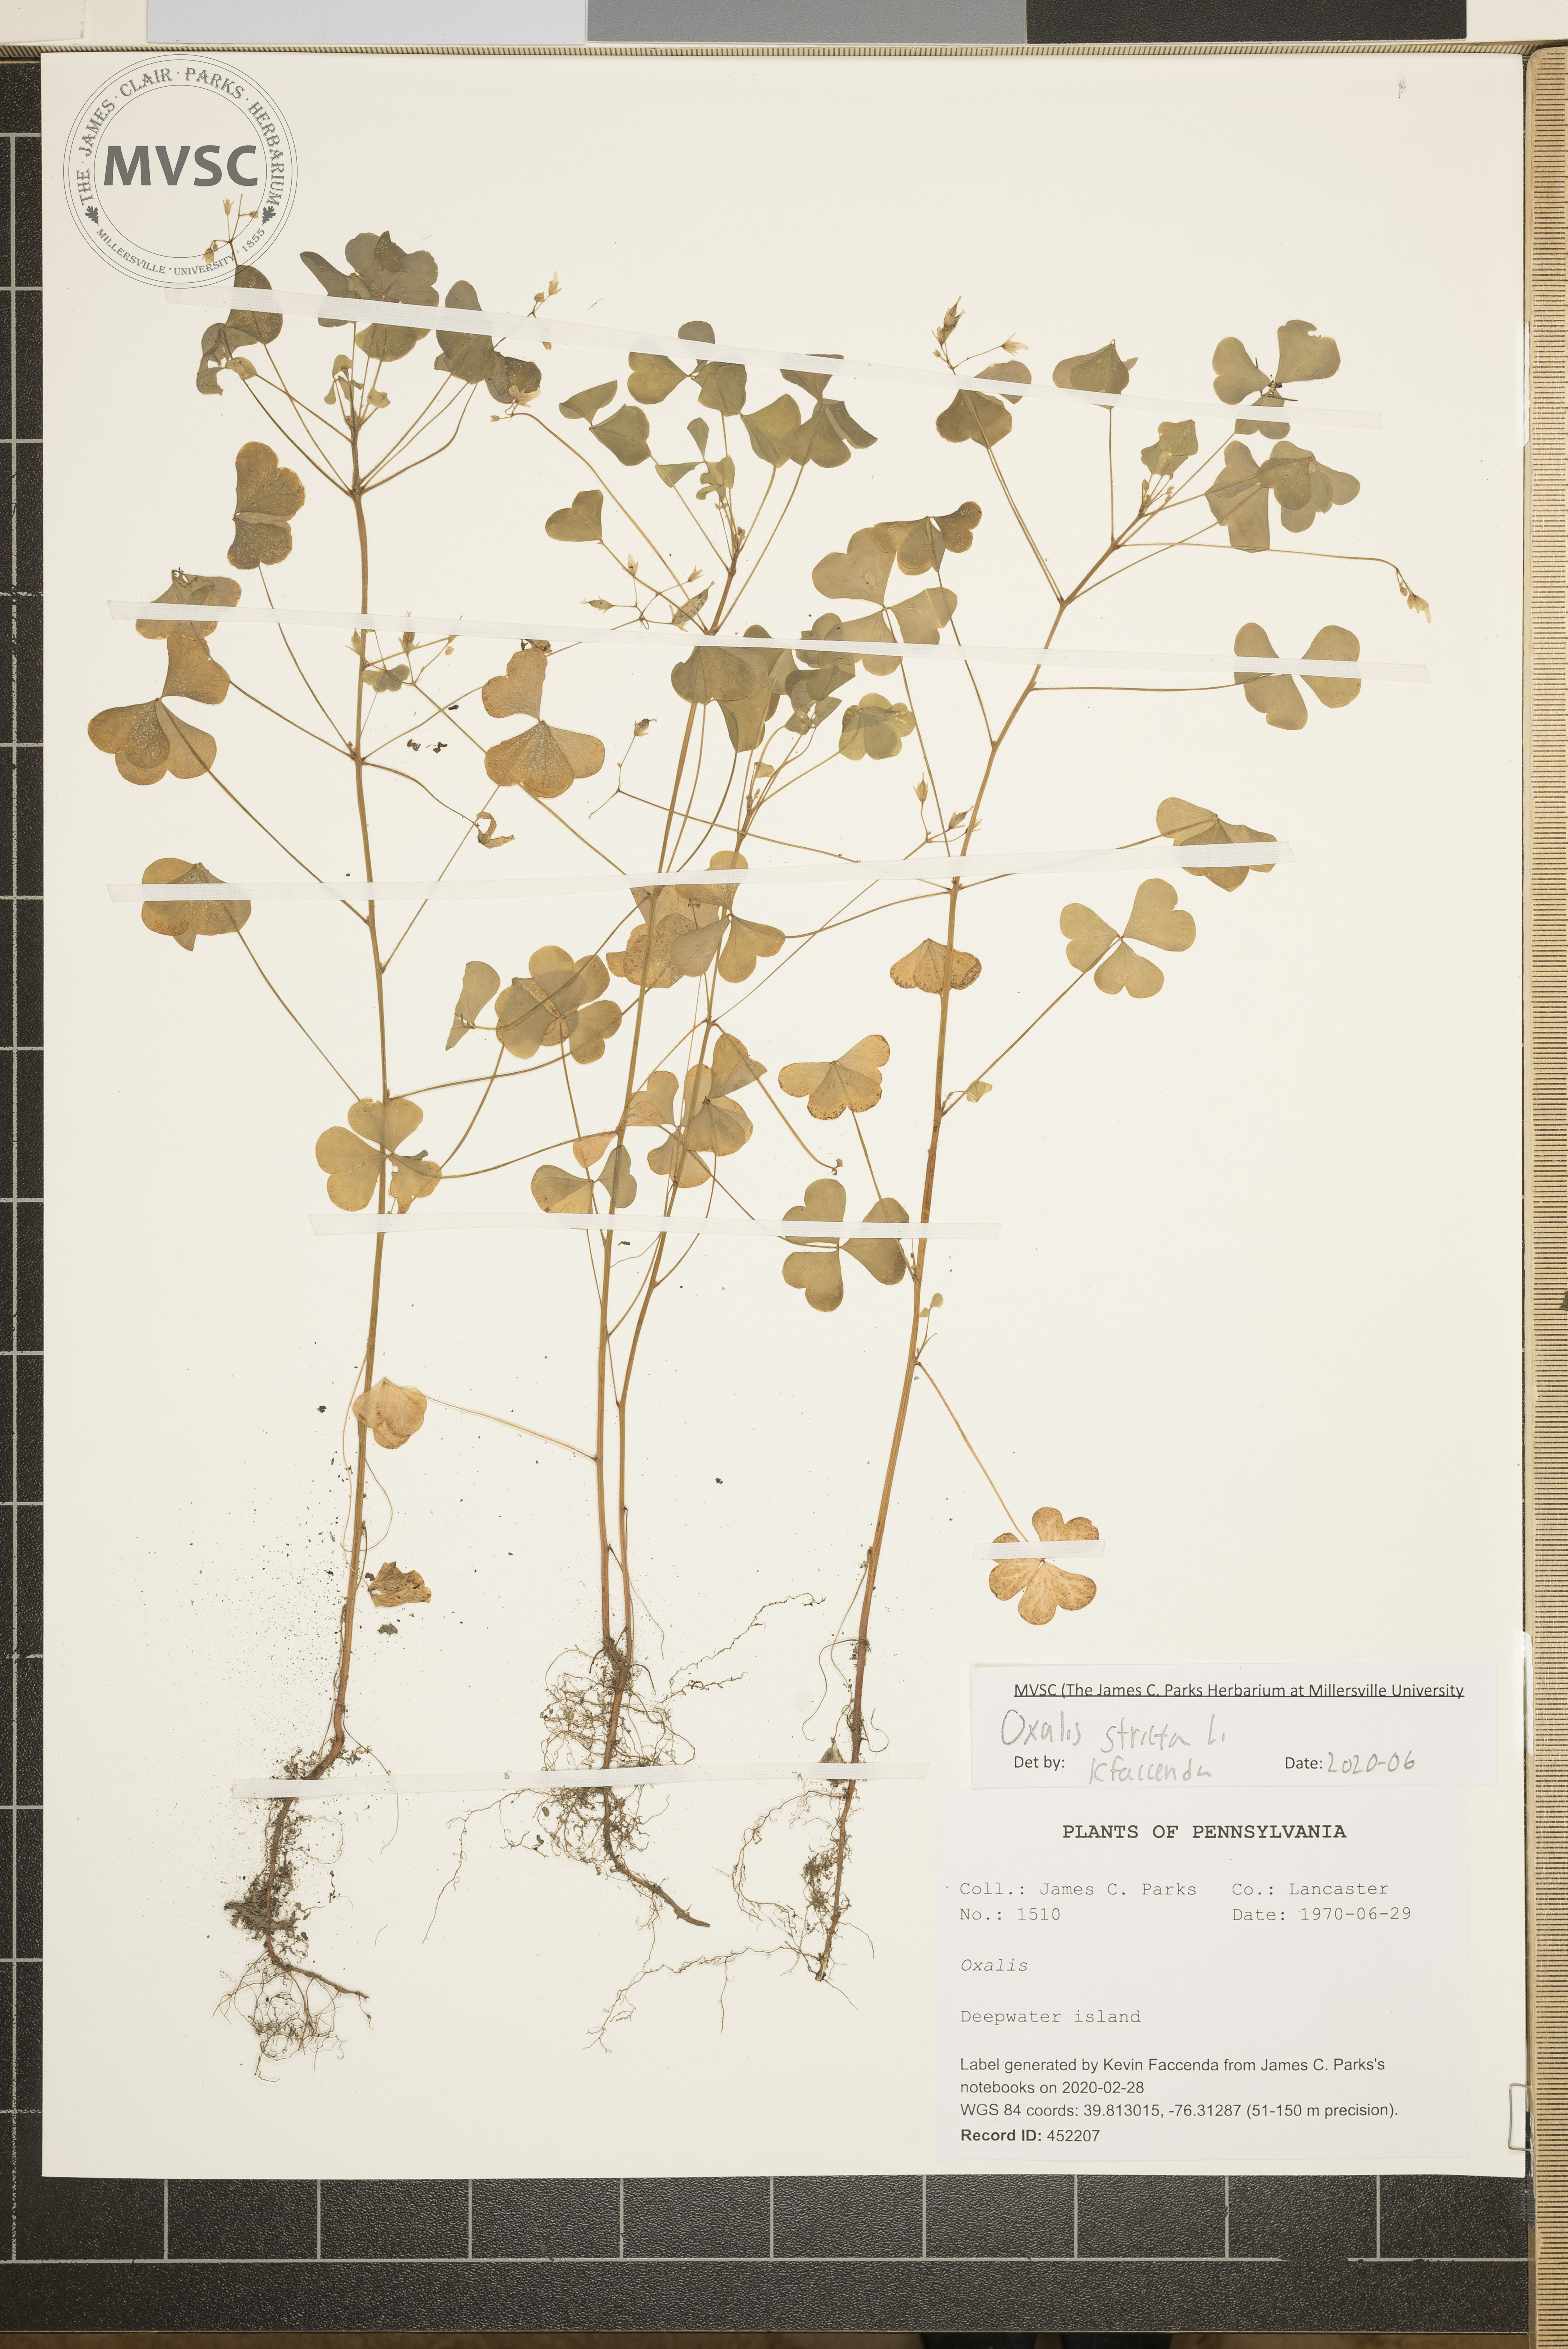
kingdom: Plantae
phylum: Tracheophyta
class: Magnoliopsida
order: Oxalidales
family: Oxalidaceae
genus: Oxalis
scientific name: Oxalis stricta
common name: Upright yellow-sorrel
